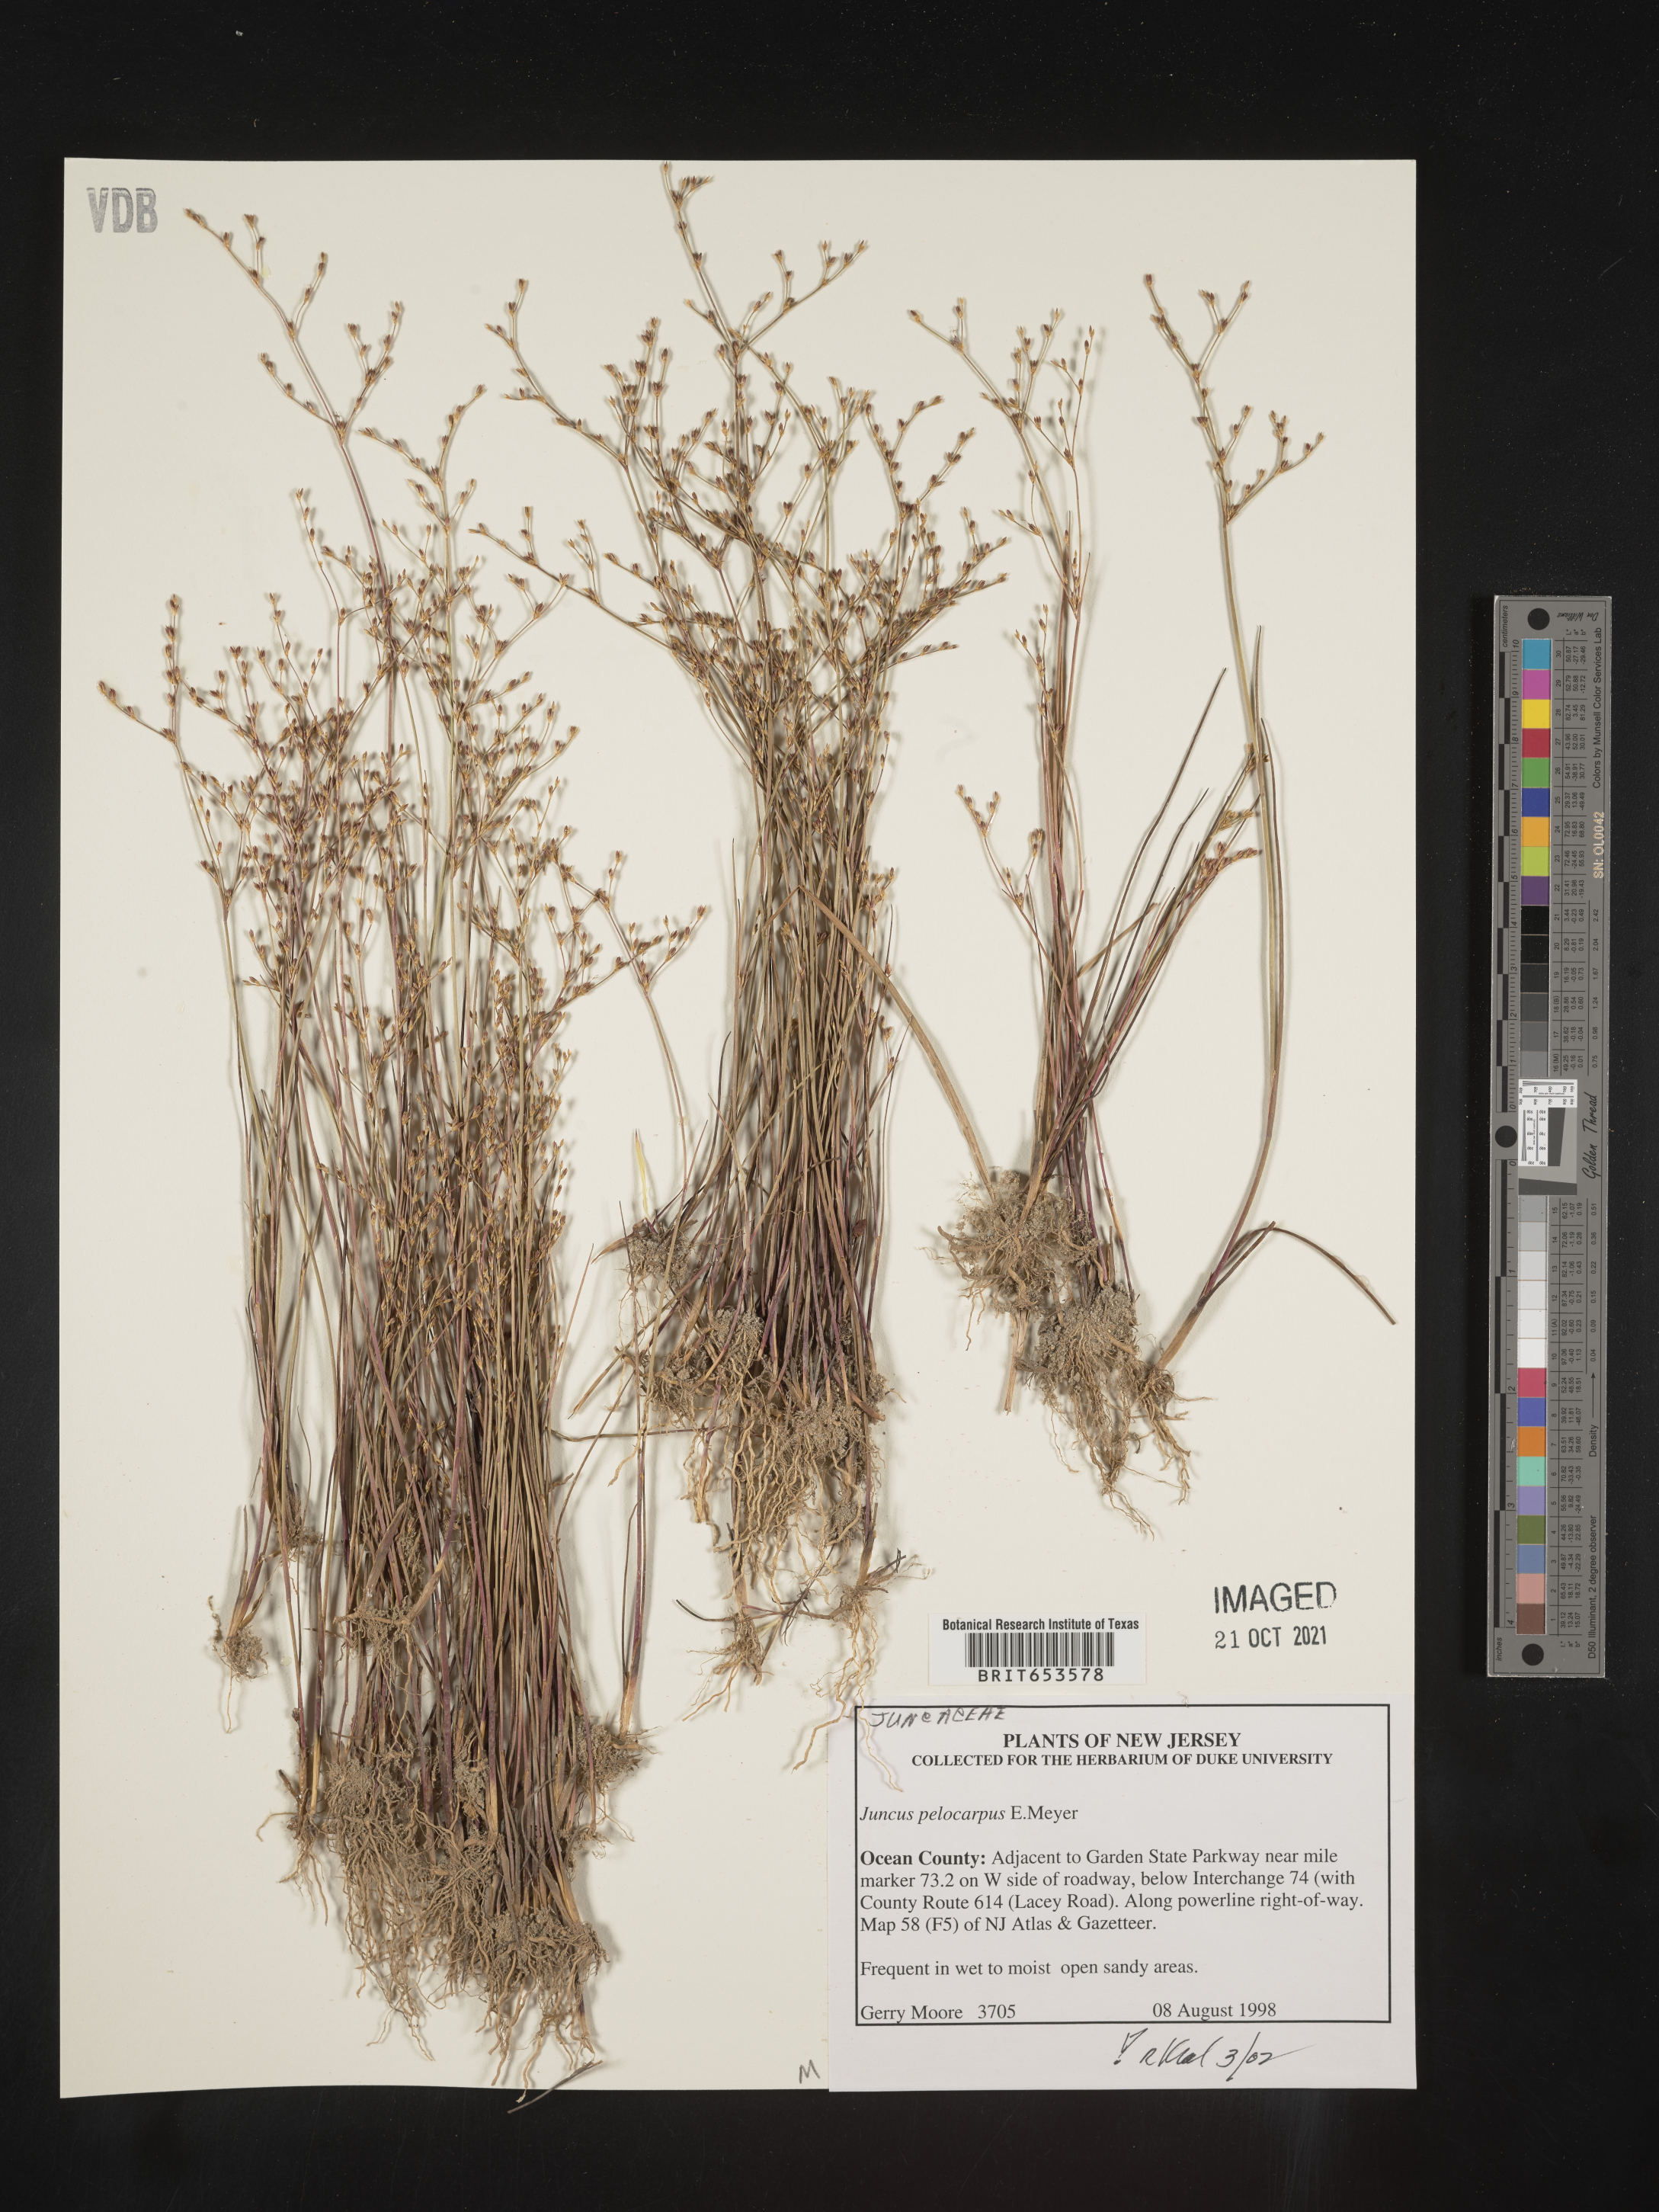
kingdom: Plantae
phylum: Tracheophyta
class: Liliopsida
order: Poales
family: Juncaceae
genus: Juncus
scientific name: Juncus pelocarpus
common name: Brown-fruited rush
